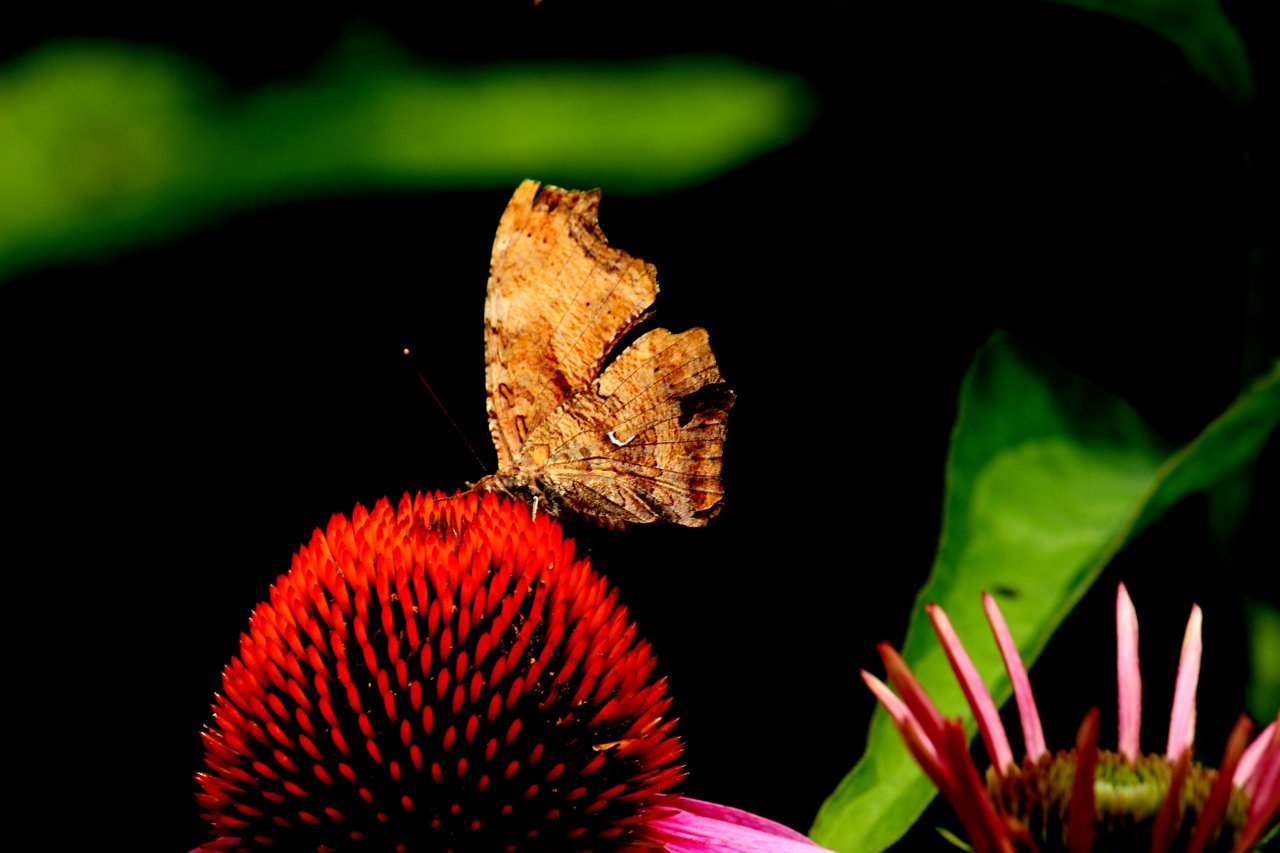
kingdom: Animalia
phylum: Arthropoda
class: Insecta
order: Lepidoptera
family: Nymphalidae
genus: Polygonia
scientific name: Polygonia comma
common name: Eastern Comma
